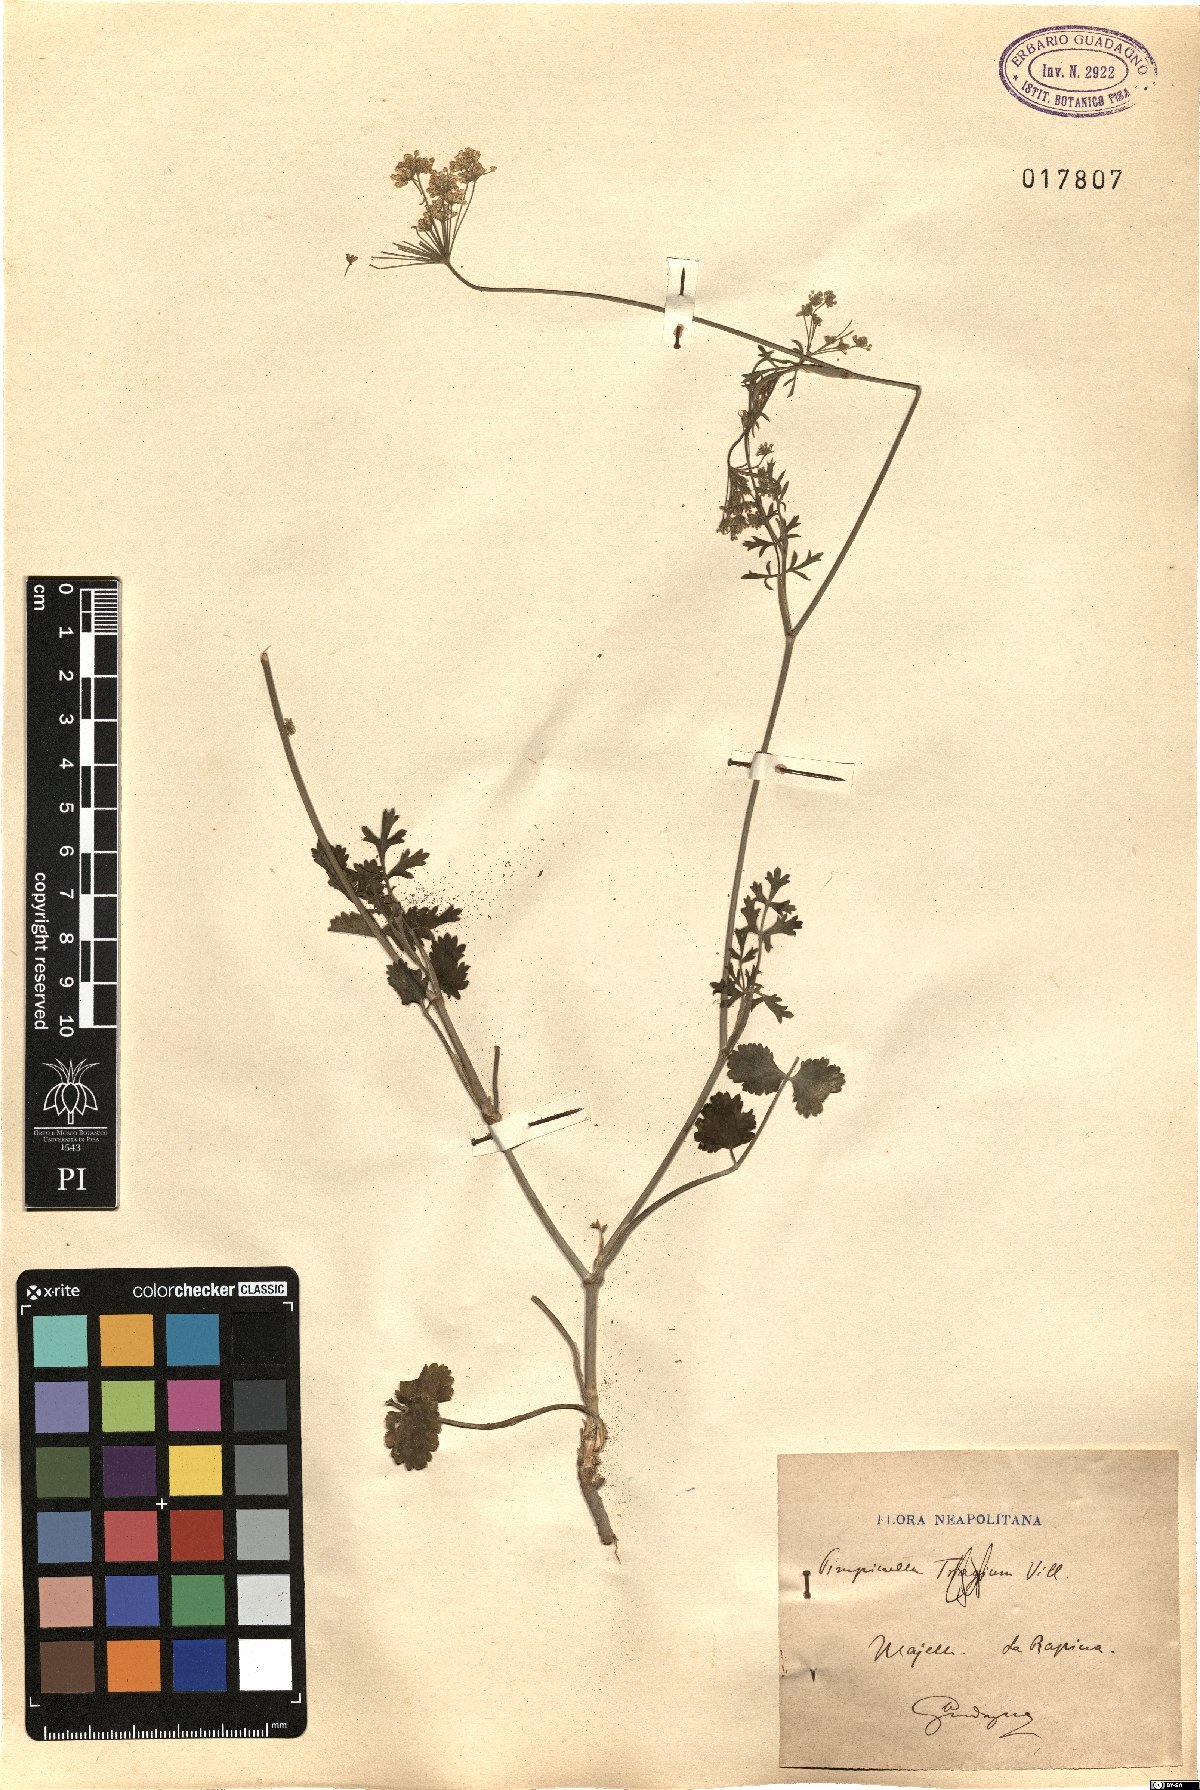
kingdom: Plantae
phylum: Tracheophyta
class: Magnoliopsida
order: Apiales
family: Apiaceae
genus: Pimpinella
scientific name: Pimpinella tragium
